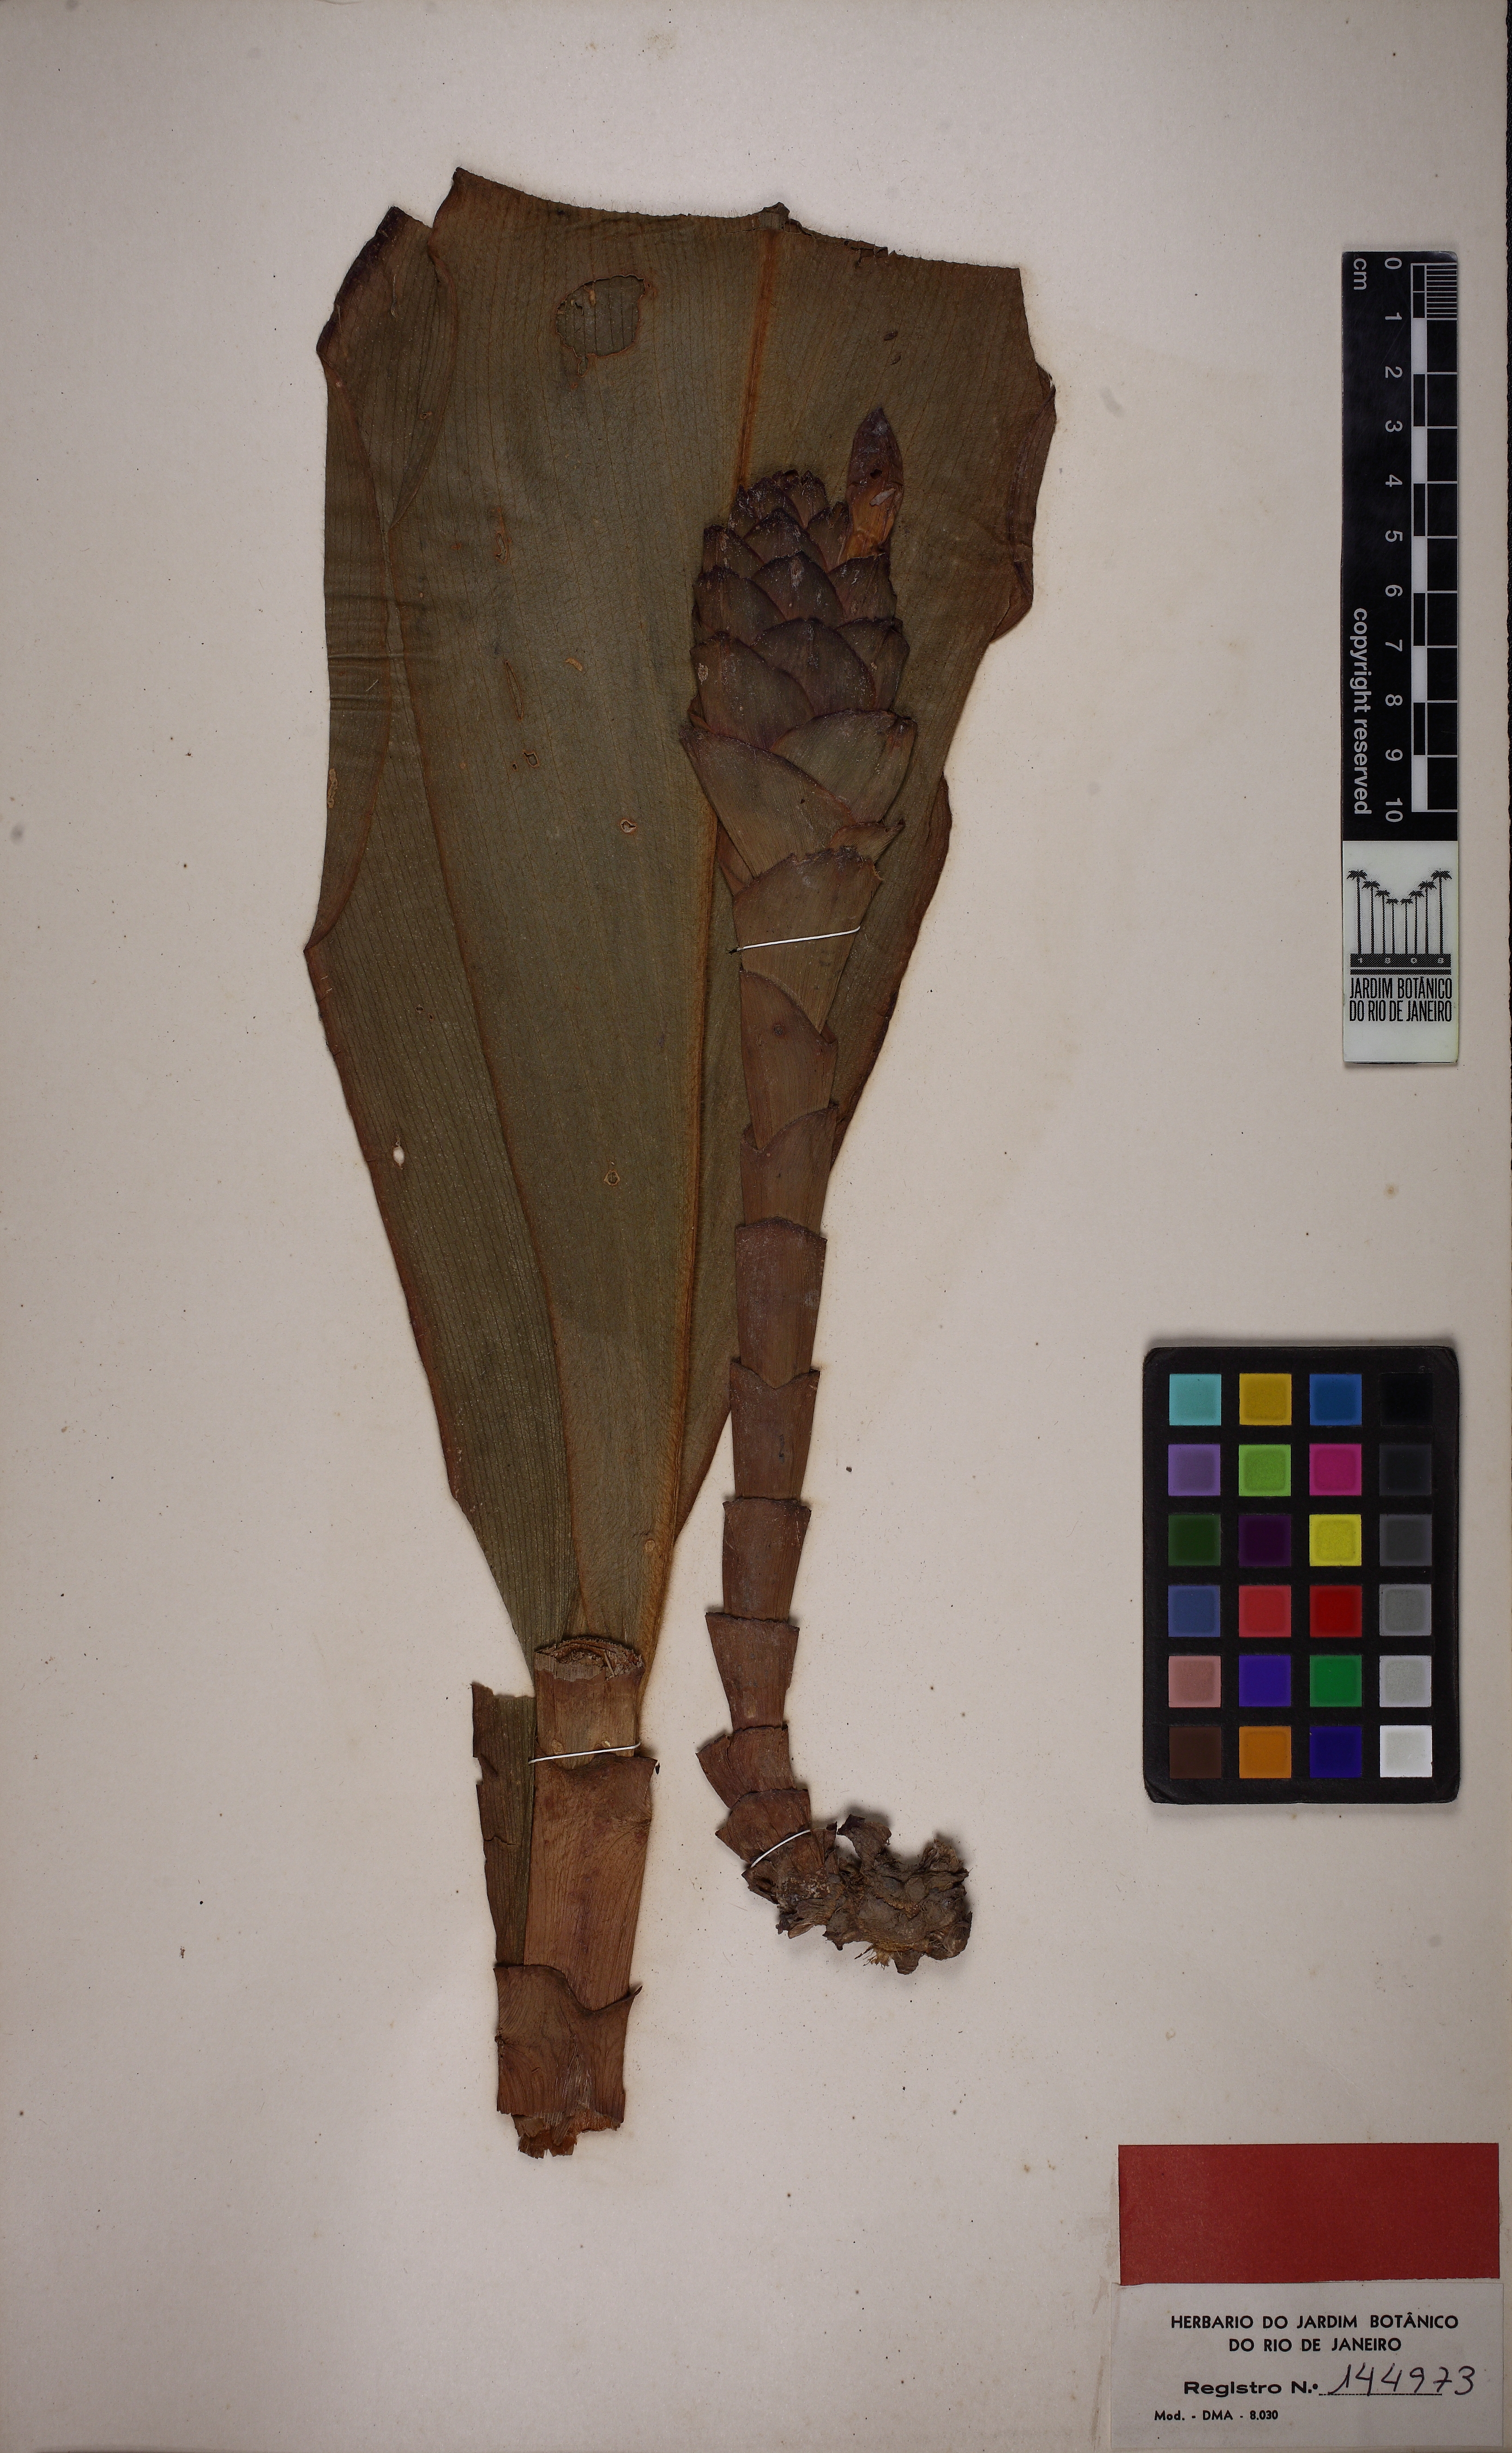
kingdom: Plantae
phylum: Tracheophyta
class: Liliopsida
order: Zingiberales
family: Costaceae
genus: Costus
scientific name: Costus amazonicus
